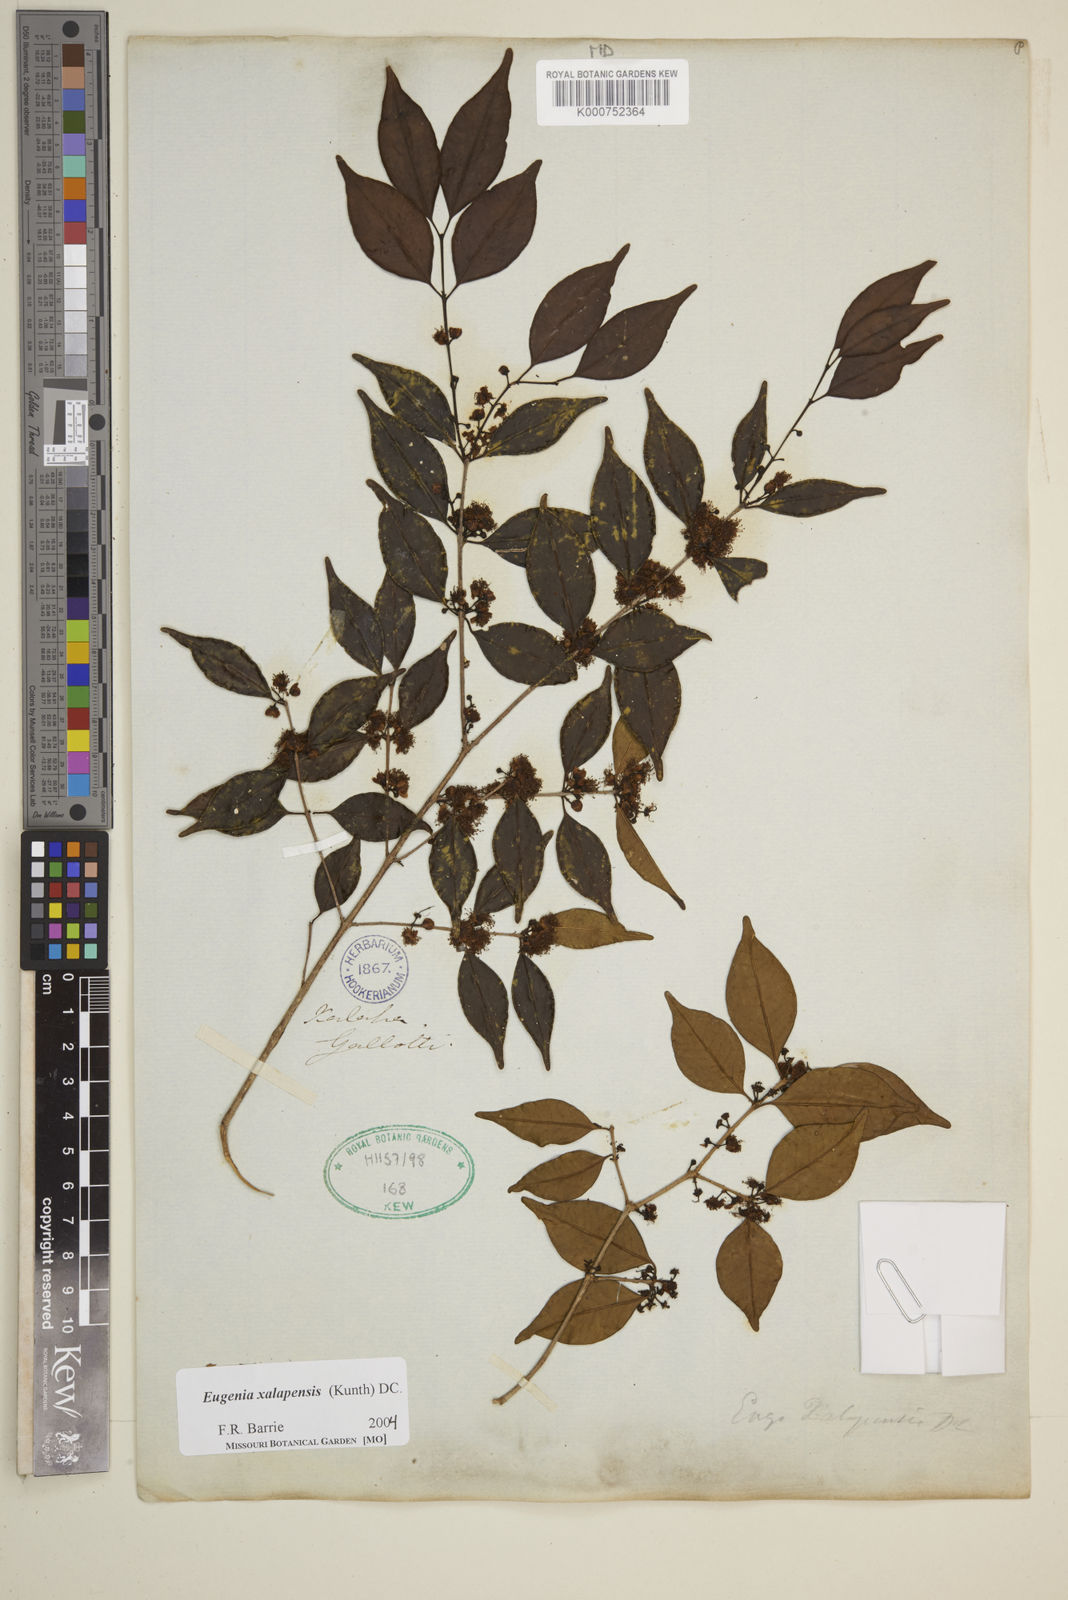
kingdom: Plantae
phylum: Tracheophyta
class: Magnoliopsida
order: Myrtales
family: Myrtaceae
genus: Eugenia
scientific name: Eugenia xalapensis
